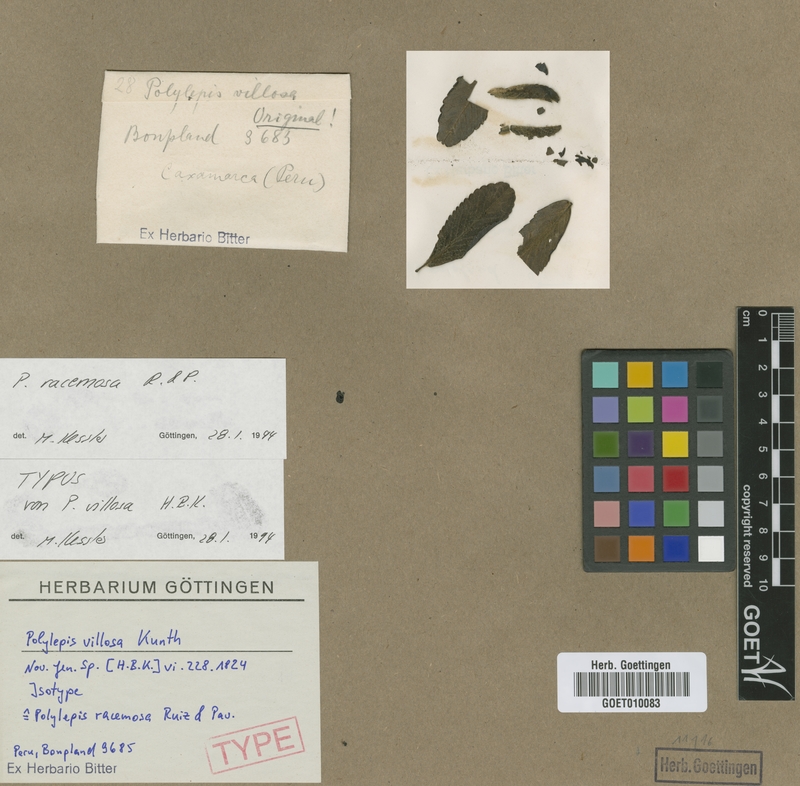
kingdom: Plantae
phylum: Tracheophyta
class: Magnoliopsida
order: Rosales
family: Rosaceae
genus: Polylepis
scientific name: Polylepis racemosa
